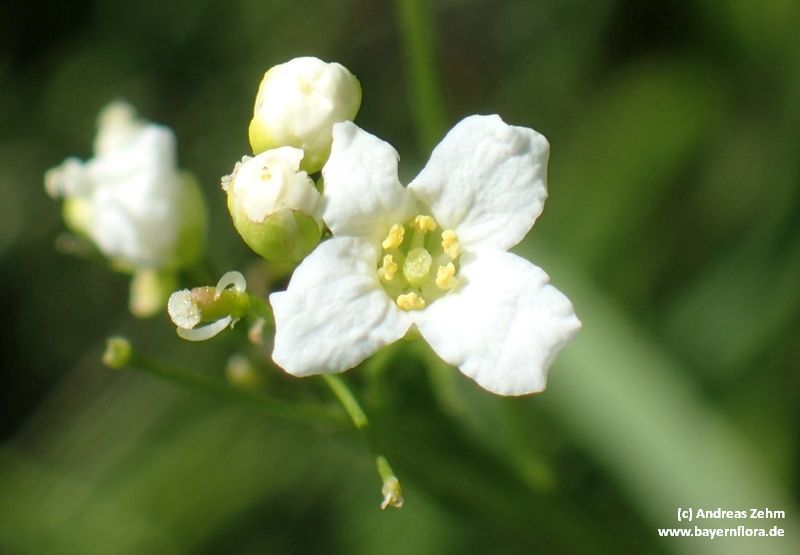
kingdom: Plantae
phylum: Tracheophyta
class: Magnoliopsida
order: Brassicales
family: Brassicaceae
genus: Armoracia
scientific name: Armoracia rusticana
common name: Horseradish
